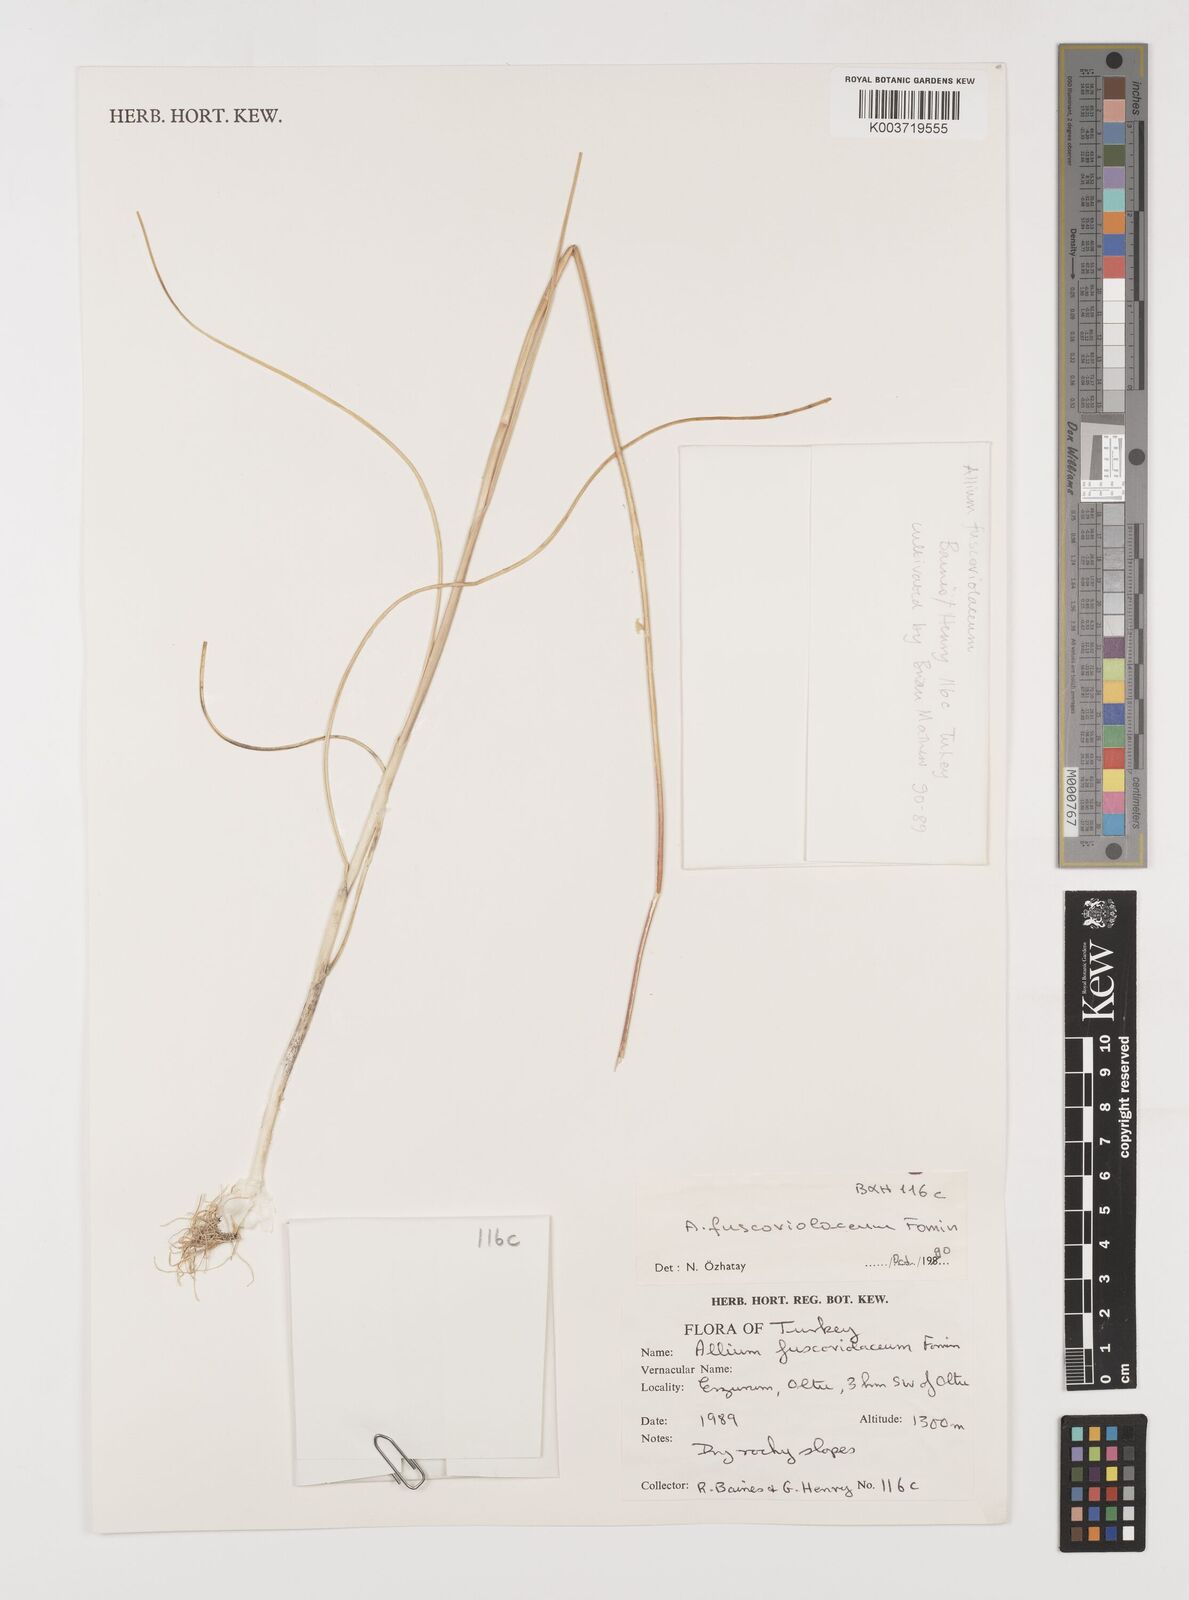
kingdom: Plantae
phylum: Tracheophyta
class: Liliopsida
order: Asparagales
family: Amaryllidaceae
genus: Allium
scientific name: Allium fuscoviolaceum
